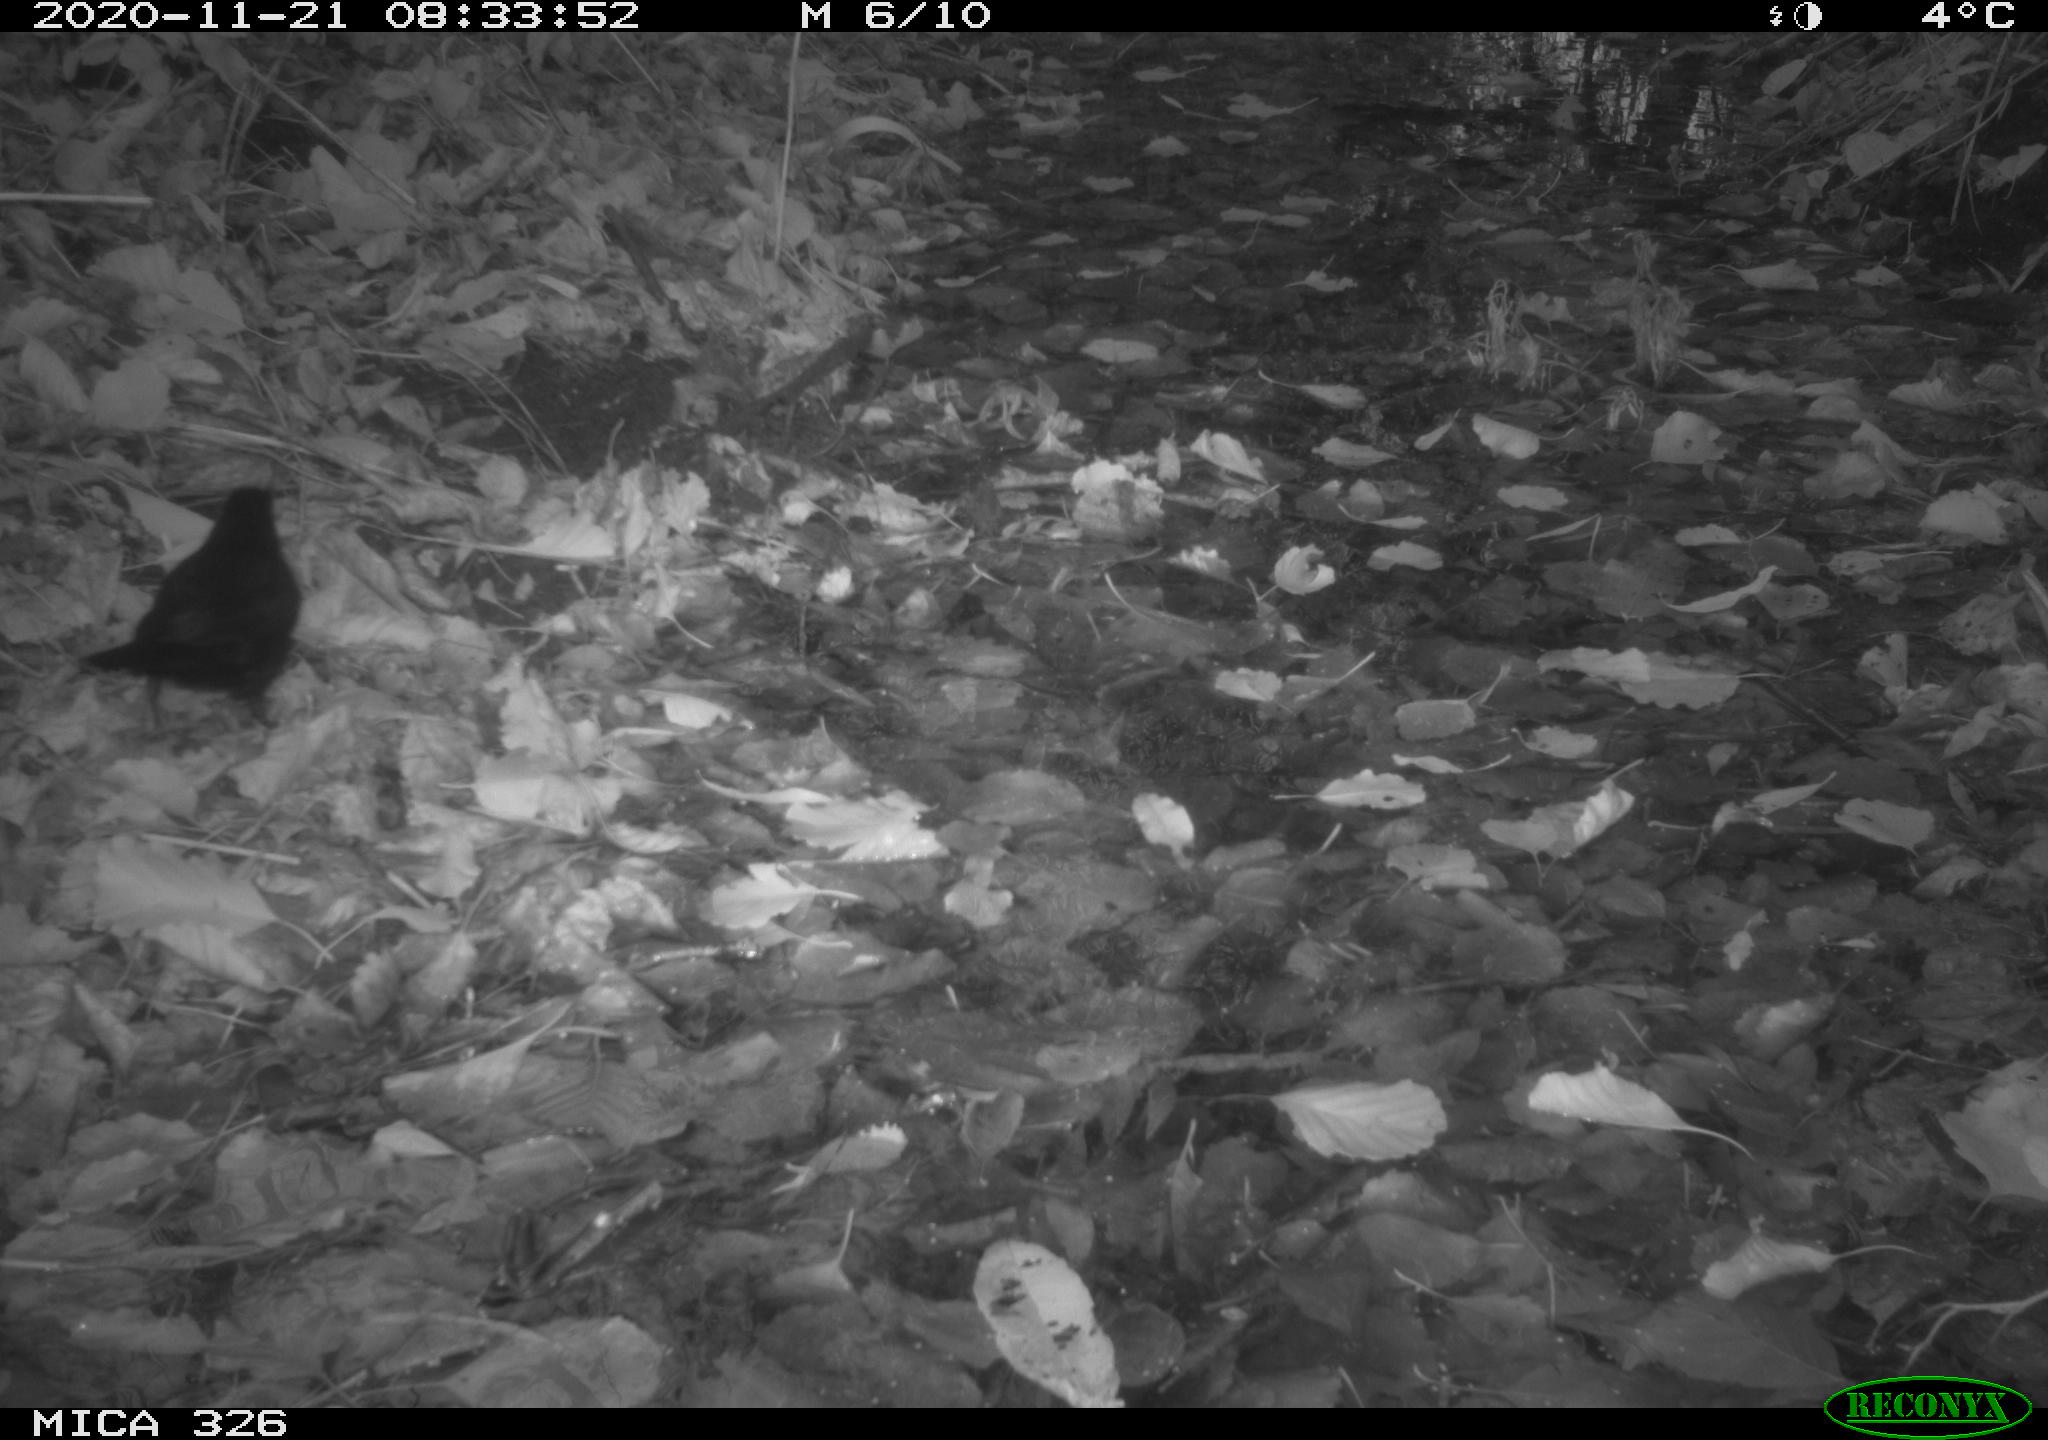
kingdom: Animalia
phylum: Chordata
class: Aves
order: Passeriformes
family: Turdidae
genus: Turdus
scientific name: Turdus merula
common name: Common blackbird
